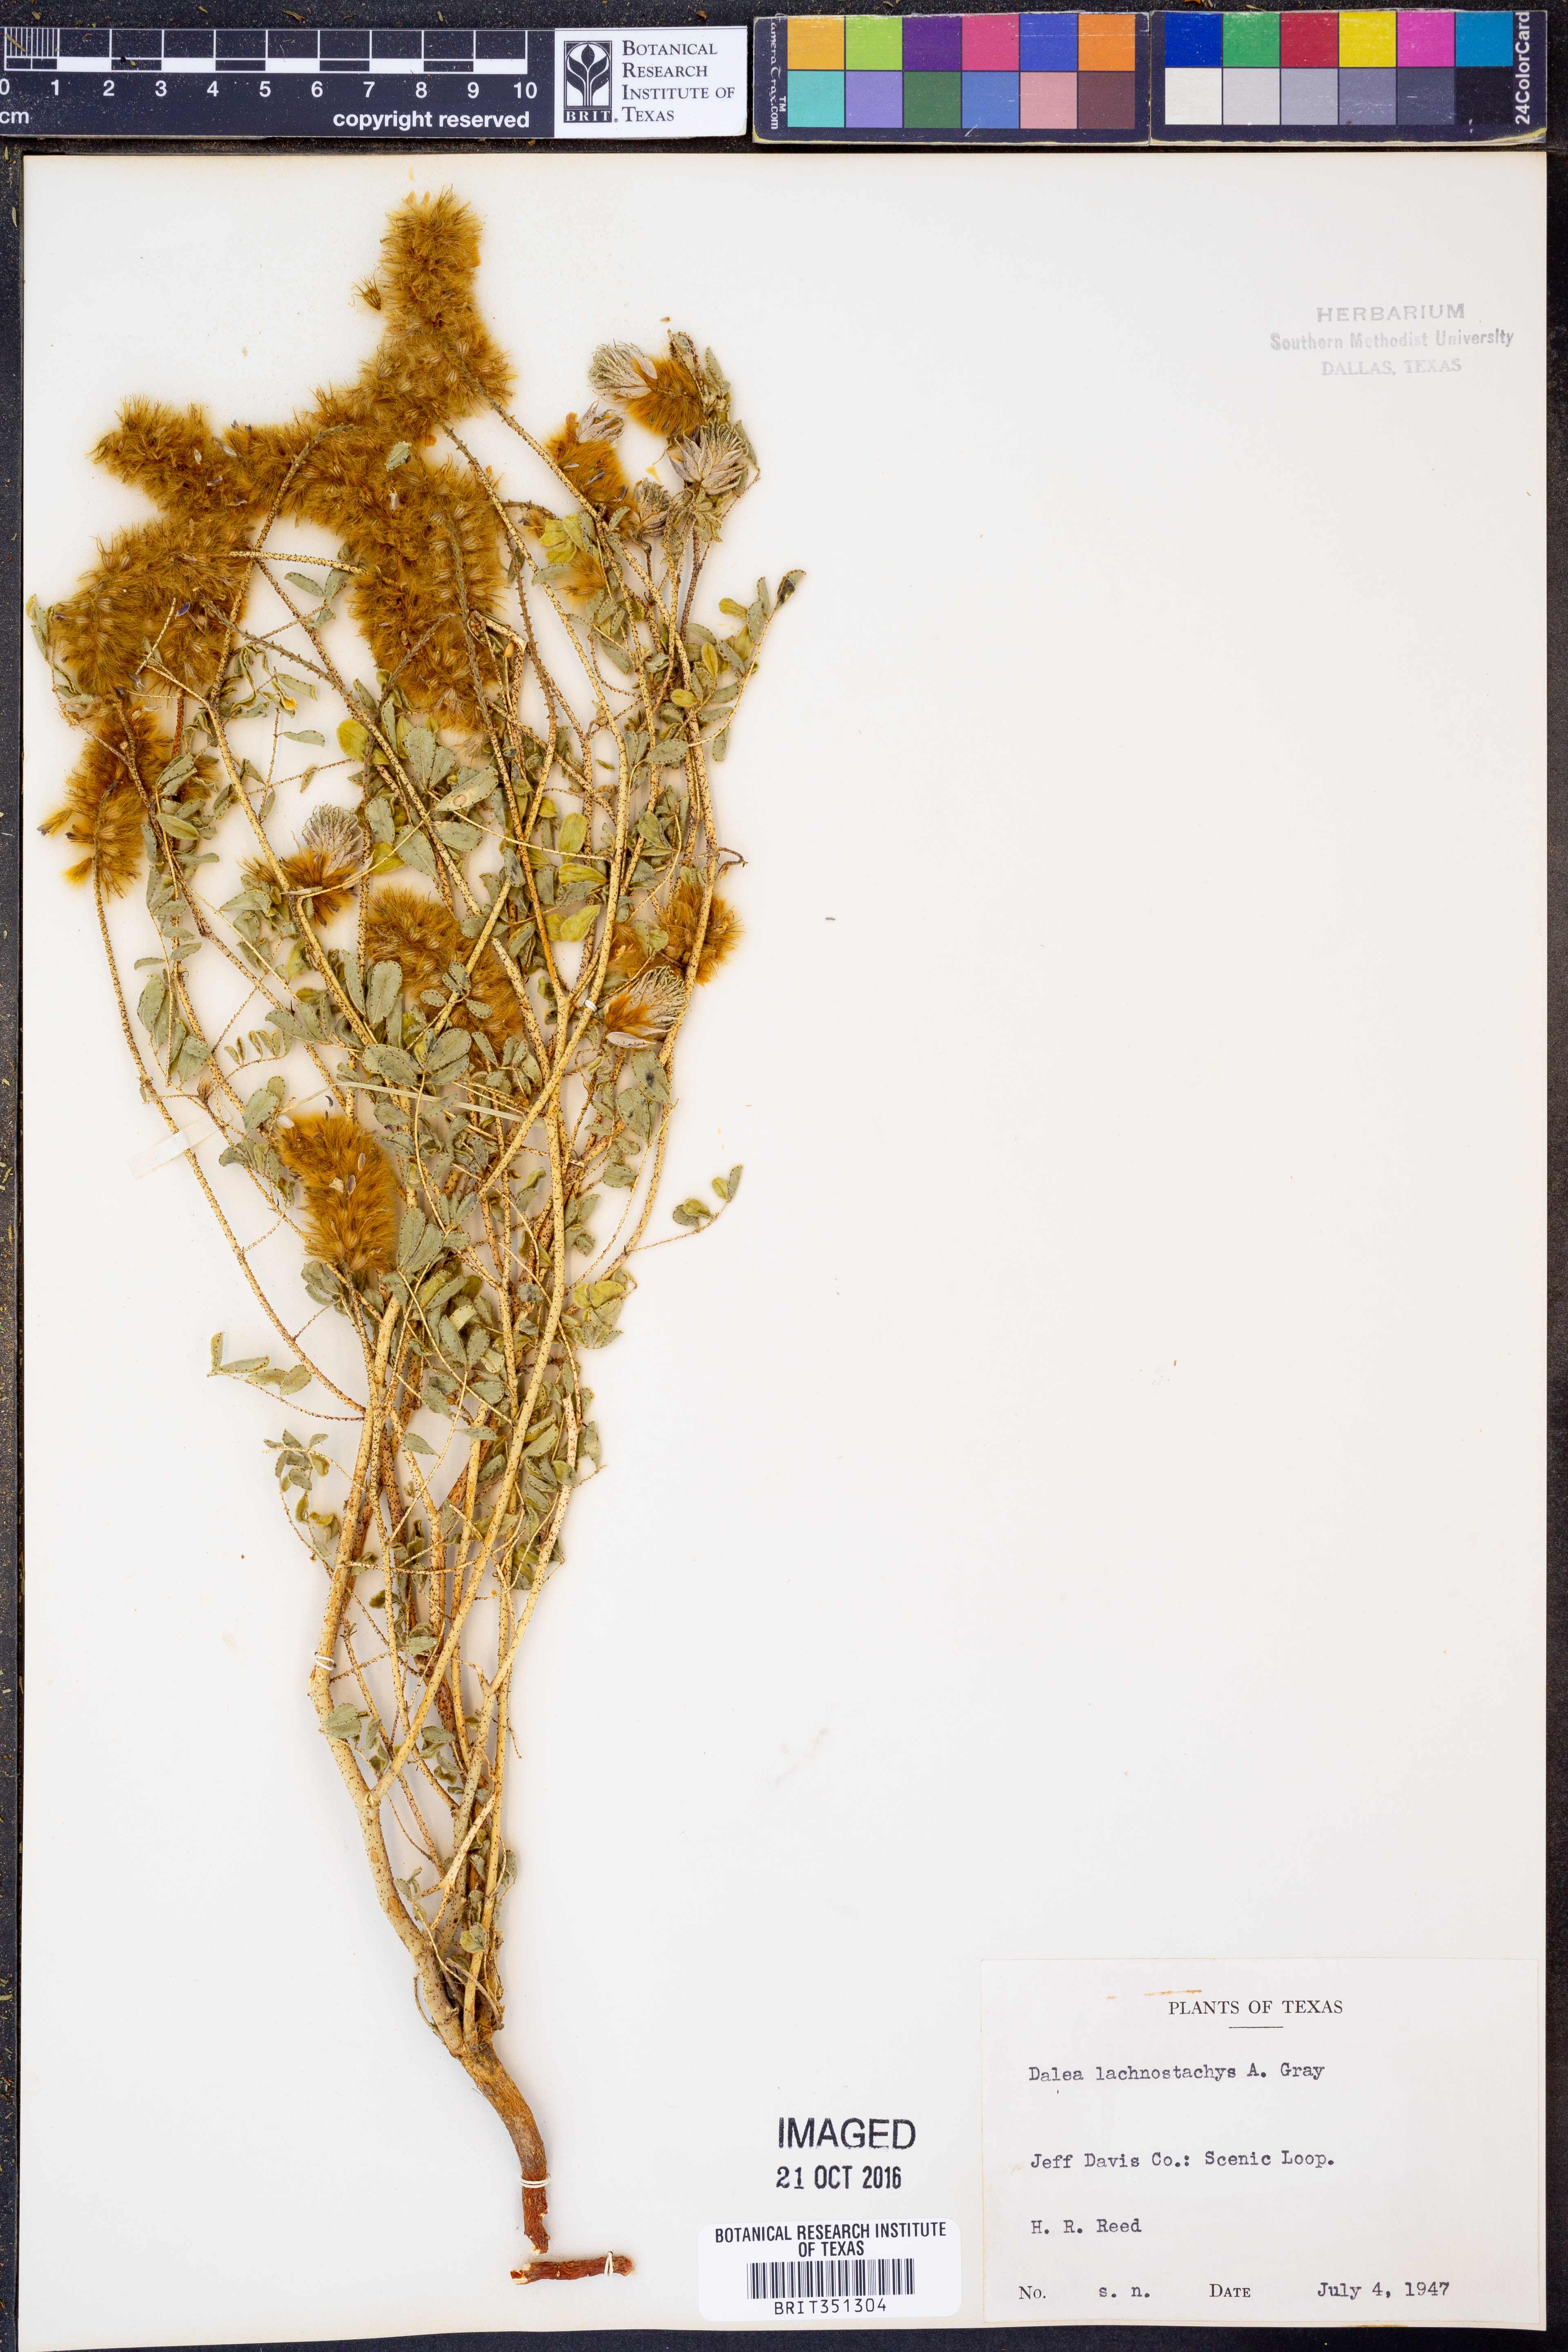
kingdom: Plantae
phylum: Tracheophyta
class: Magnoliopsida
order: Fabales
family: Fabaceae
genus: Dalea
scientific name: Dalea lachnostachys
